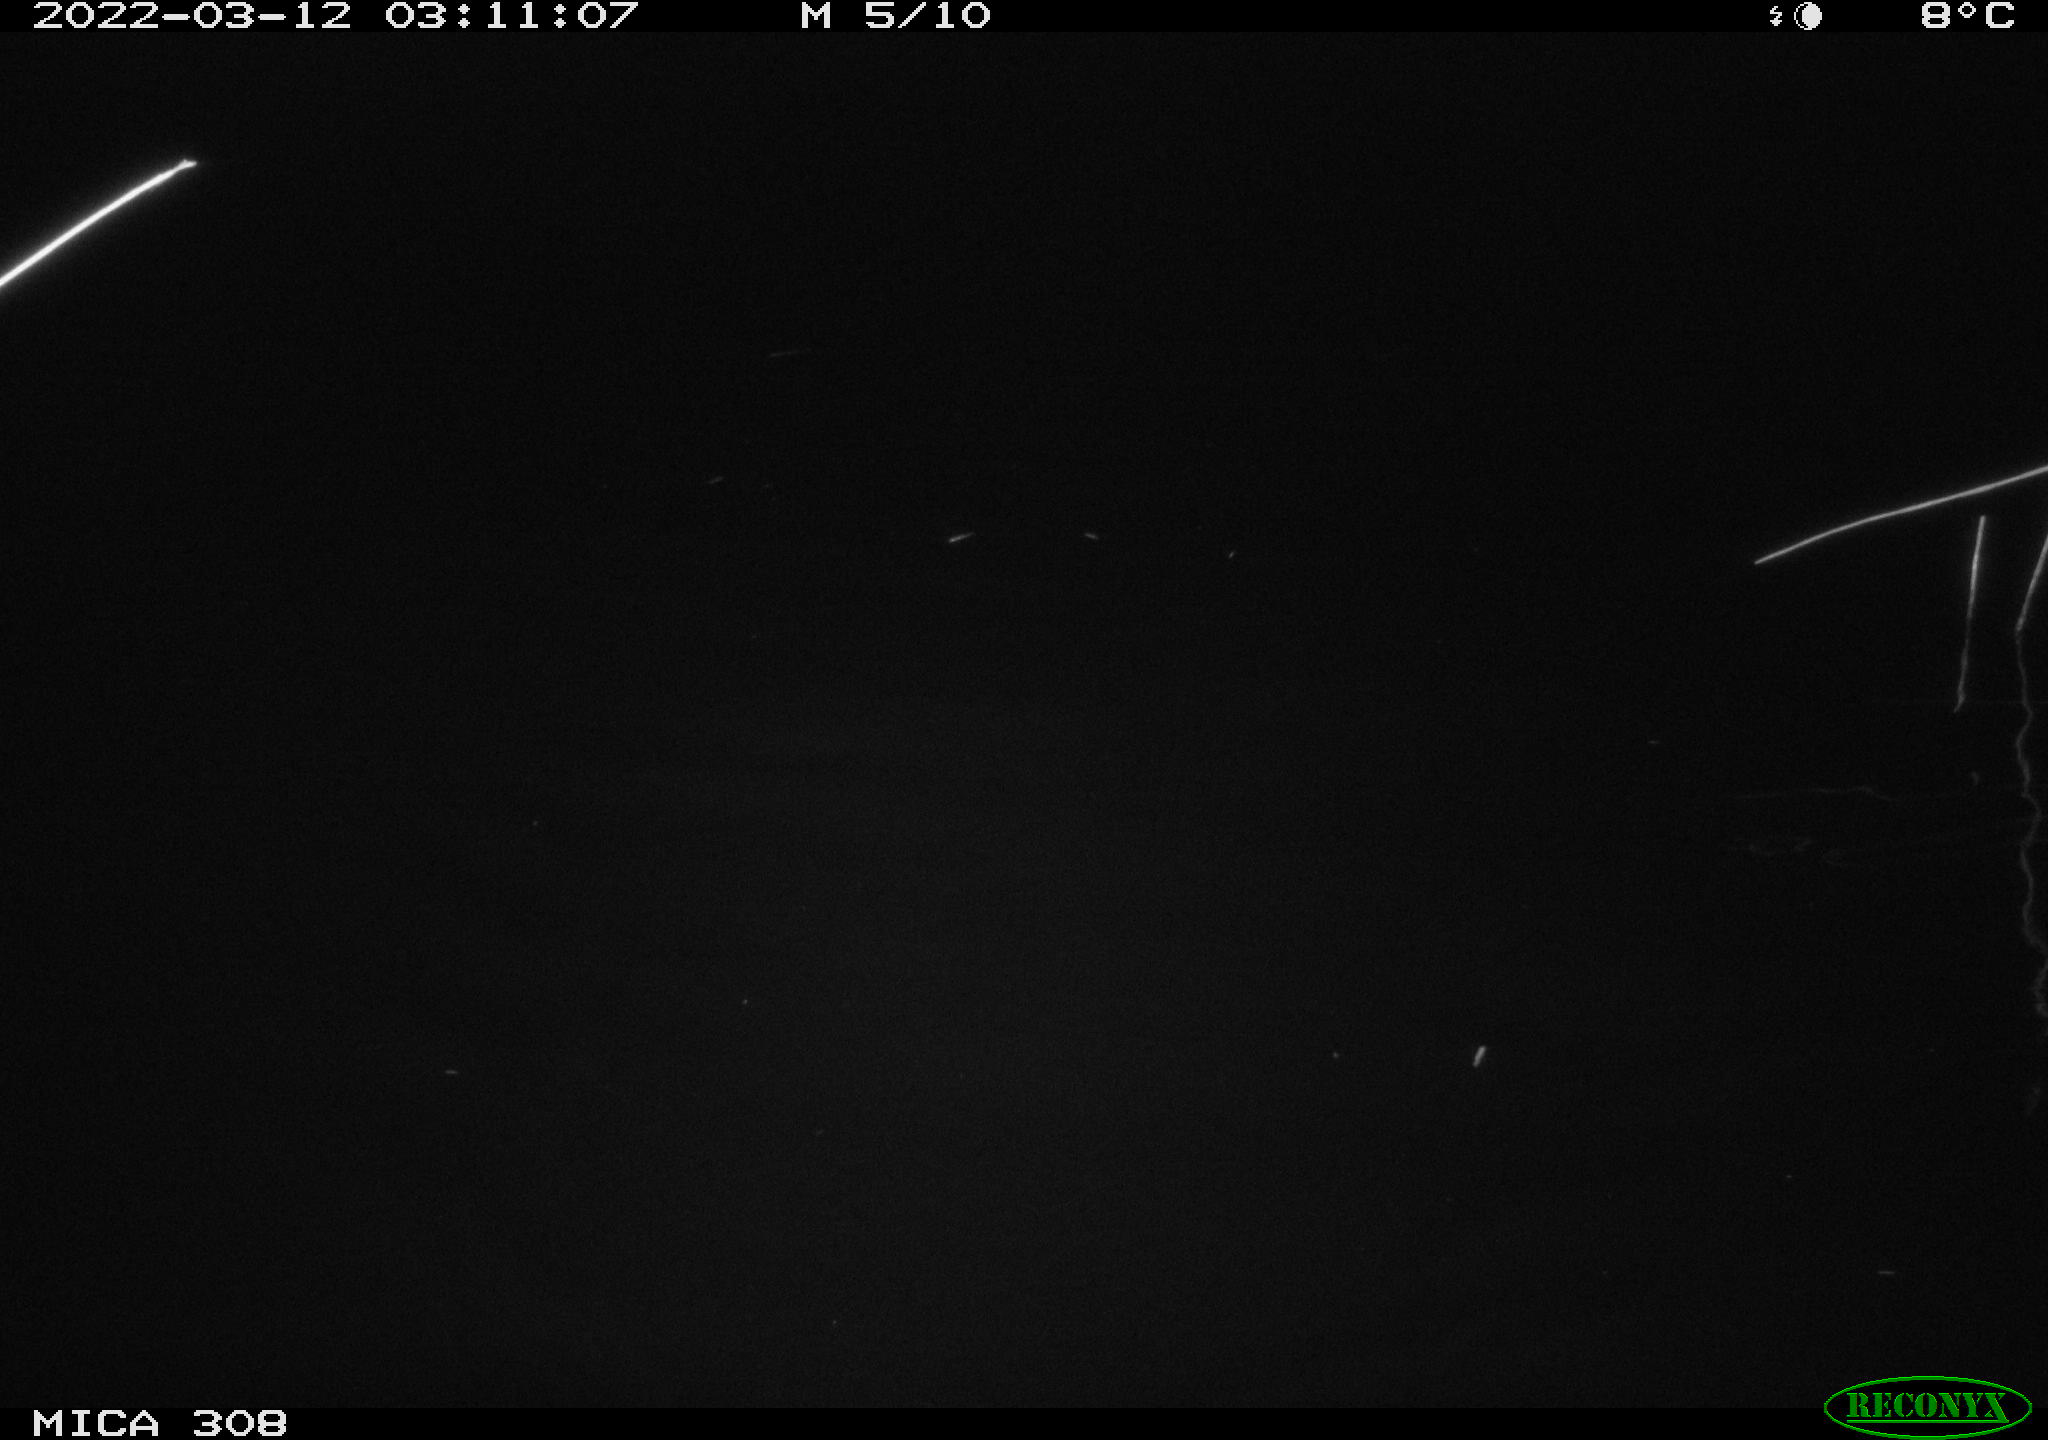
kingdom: Animalia
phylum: Chordata
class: Aves
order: Anseriformes
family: Anatidae
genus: Anas
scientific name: Anas platyrhynchos
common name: Mallard
